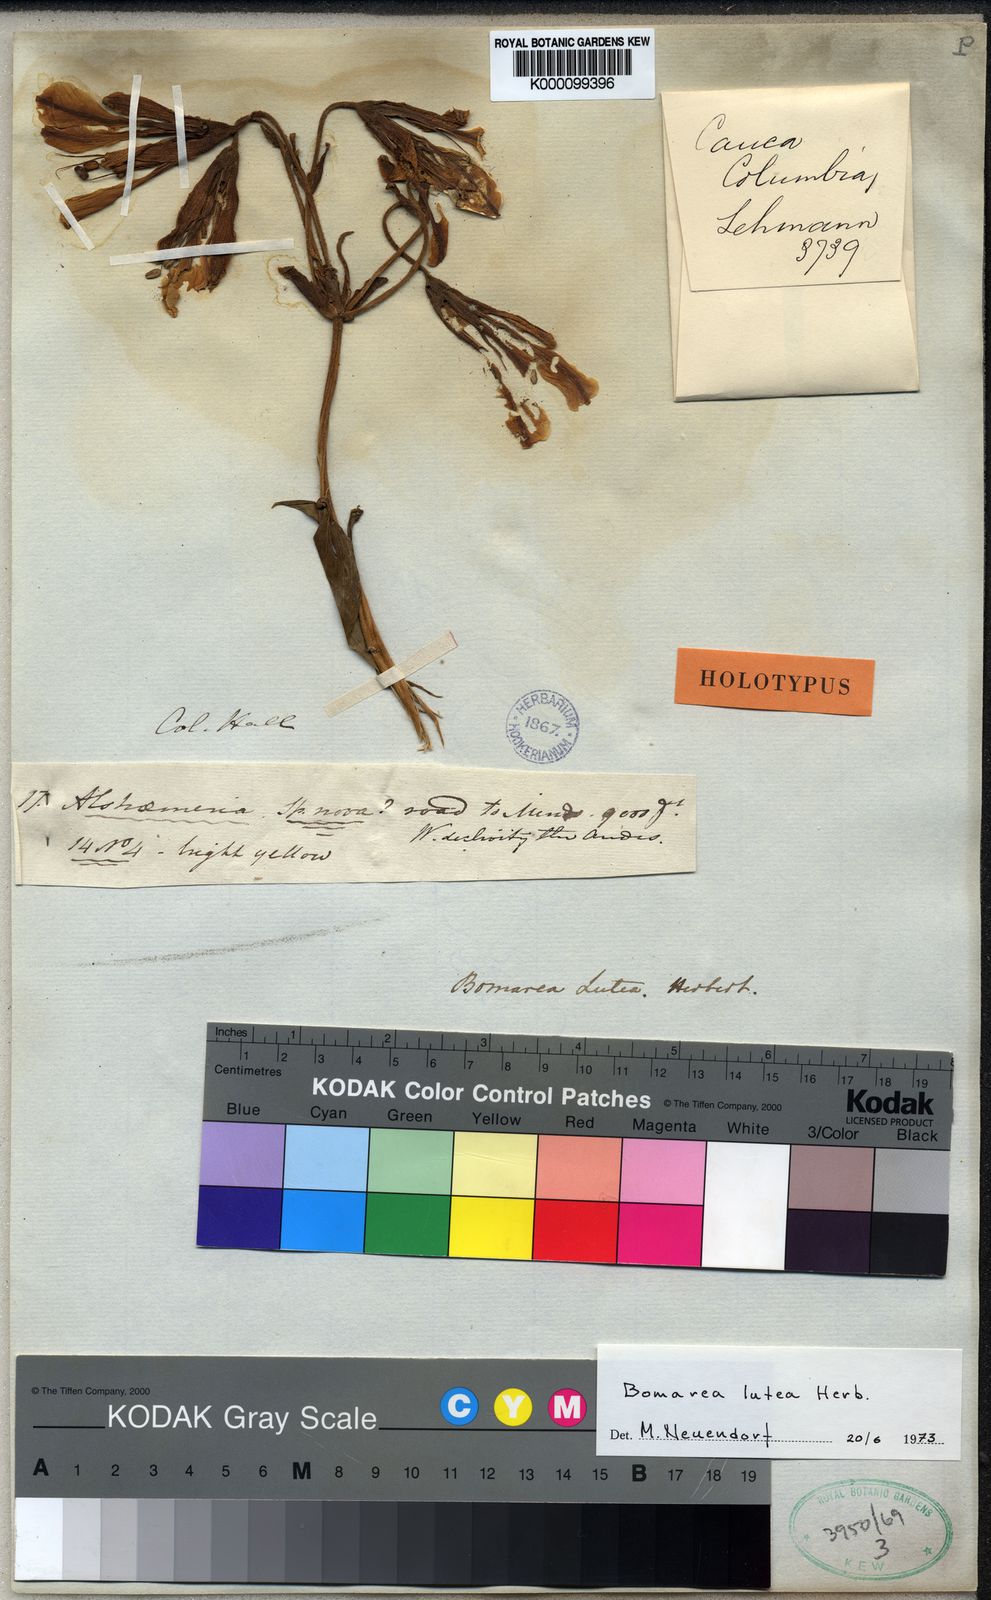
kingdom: Plantae
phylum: Tracheophyta
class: Liliopsida
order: Liliales
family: Alstroemeriaceae
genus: Bomarea
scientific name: Bomarea lutea
